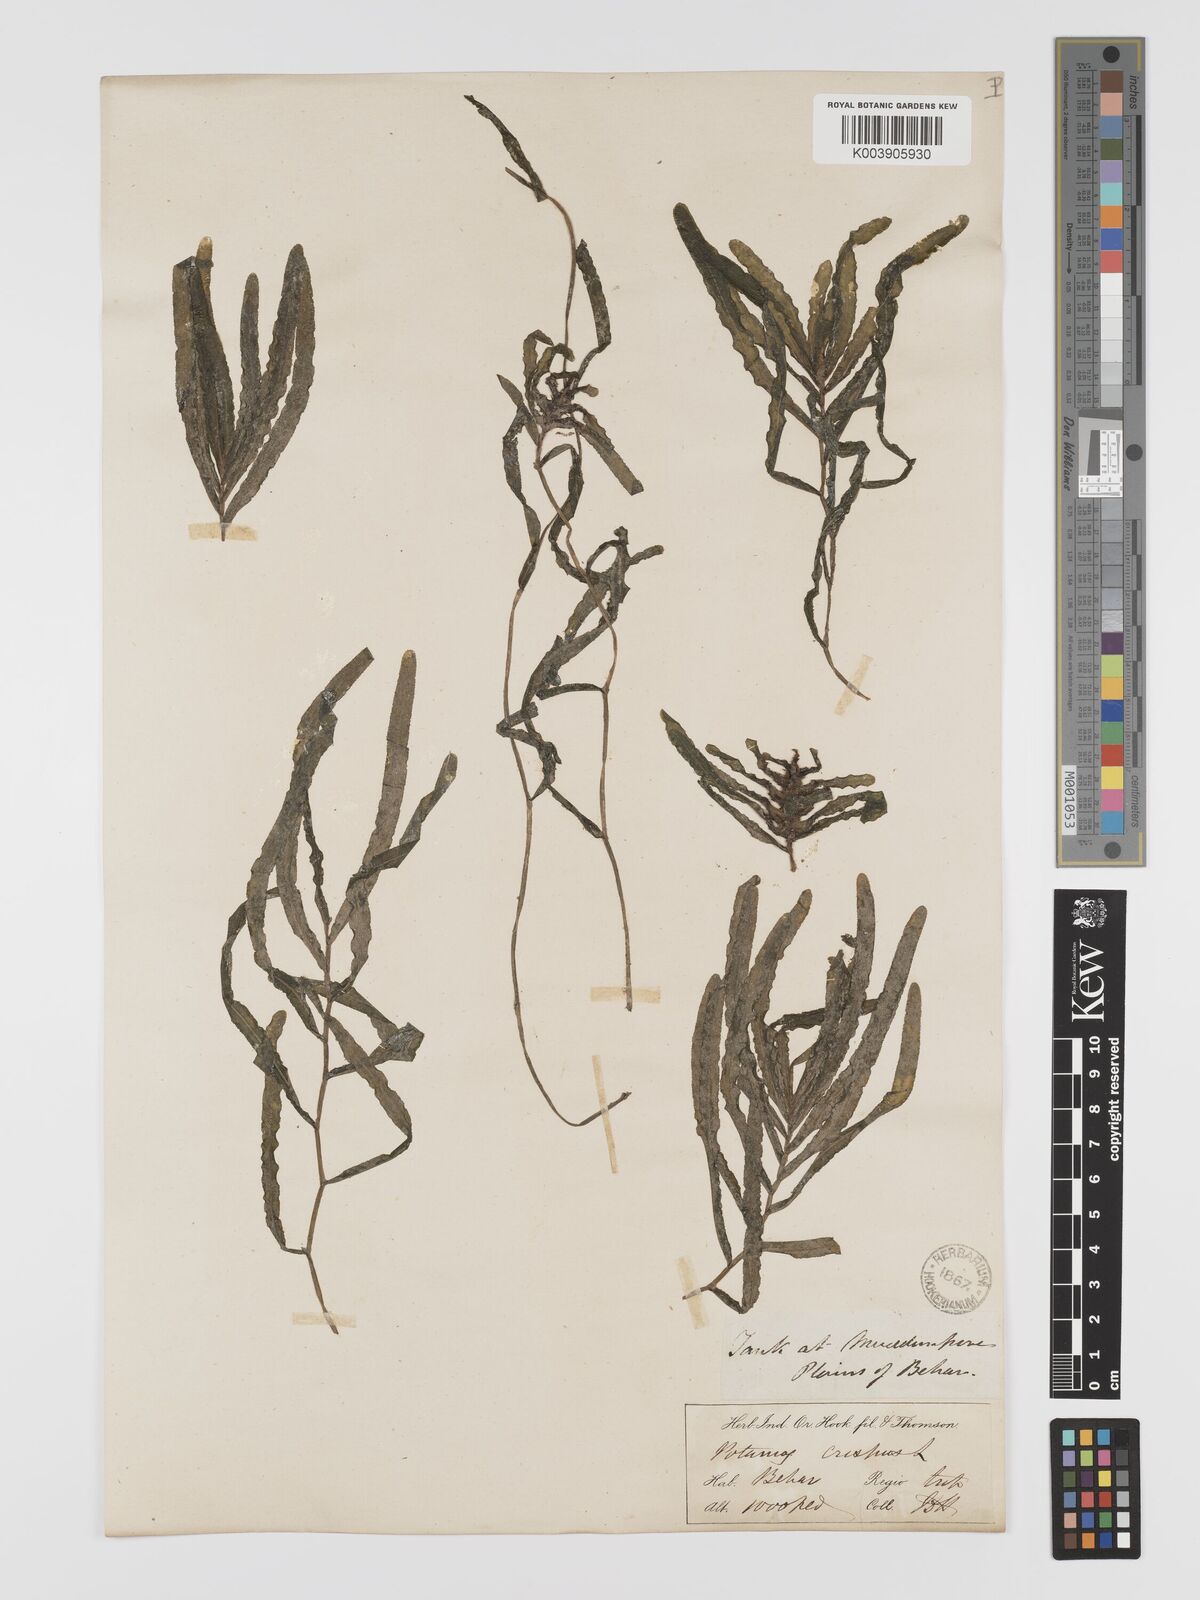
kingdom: Plantae
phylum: Tracheophyta
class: Liliopsida
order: Alismatales
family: Potamogetonaceae
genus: Potamogeton
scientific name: Potamogeton crispus
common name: Curled pondweed
